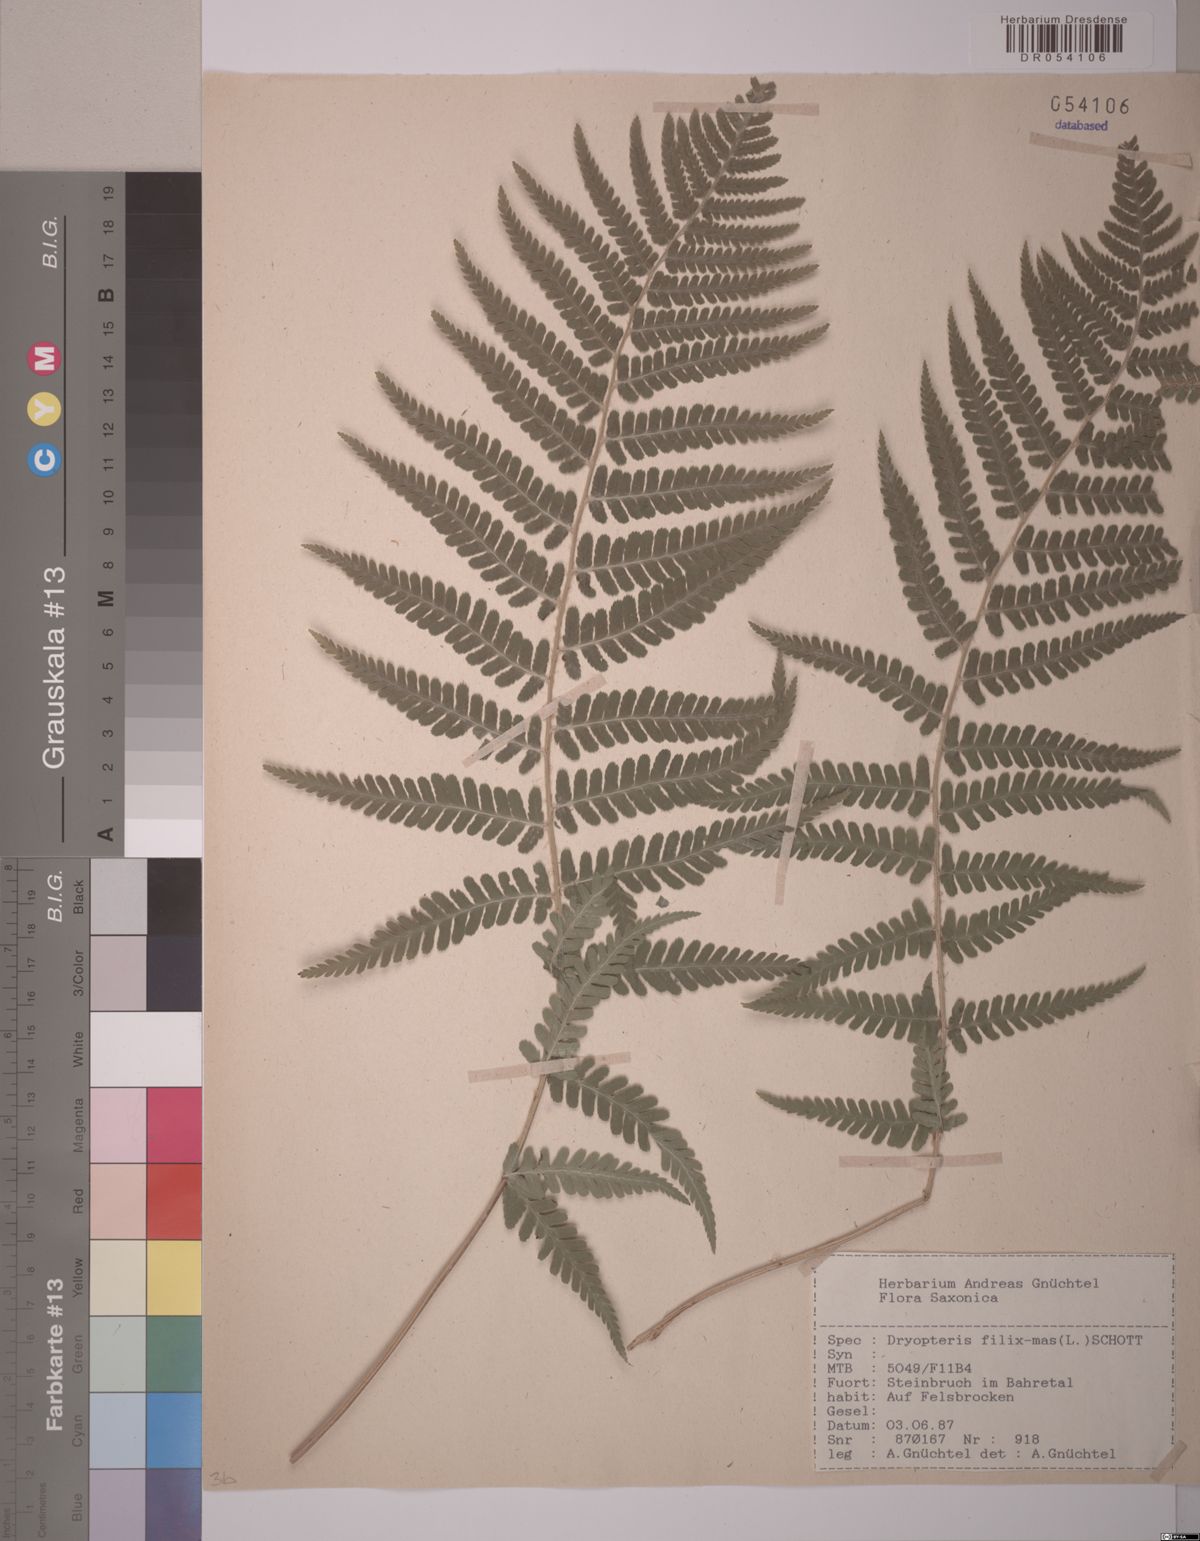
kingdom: Plantae
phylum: Tracheophyta
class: Polypodiopsida
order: Polypodiales
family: Dryopteridaceae
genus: Dryopteris
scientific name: Dryopteris filix-mas
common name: Male fern
